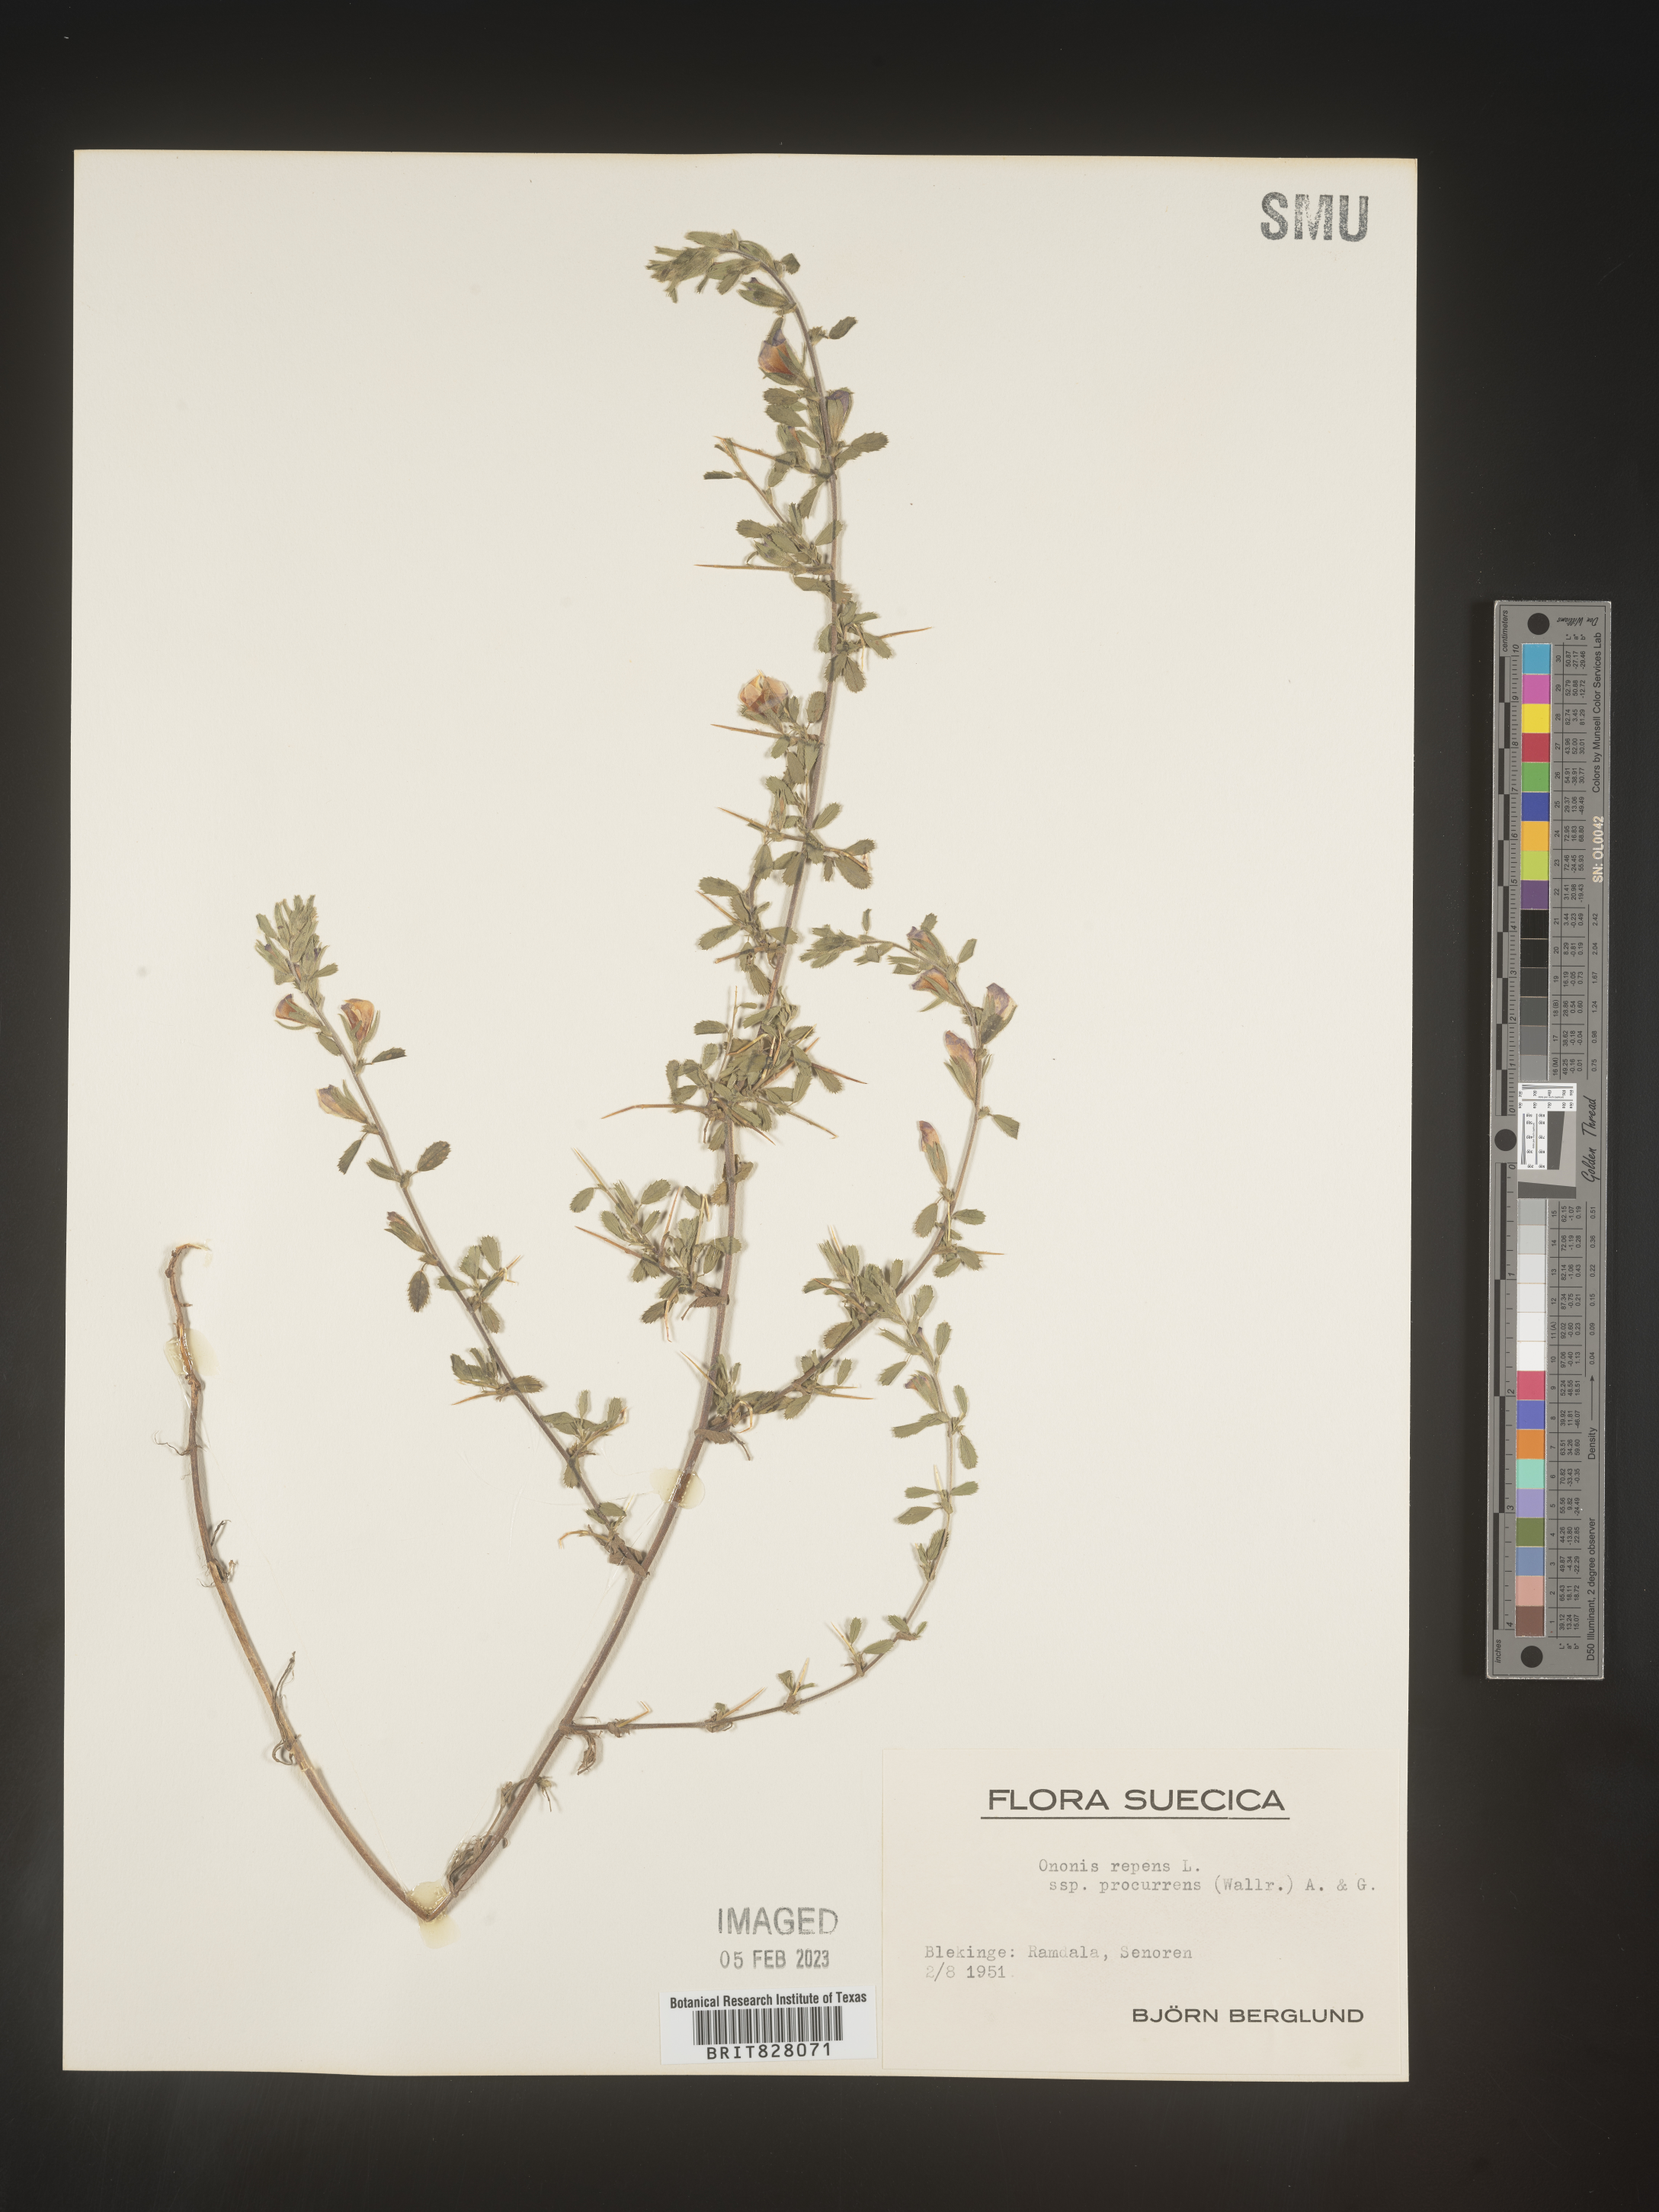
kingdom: Plantae
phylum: Tracheophyta
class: Magnoliopsida
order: Fabales
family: Fabaceae
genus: Ononis
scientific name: Ononis
